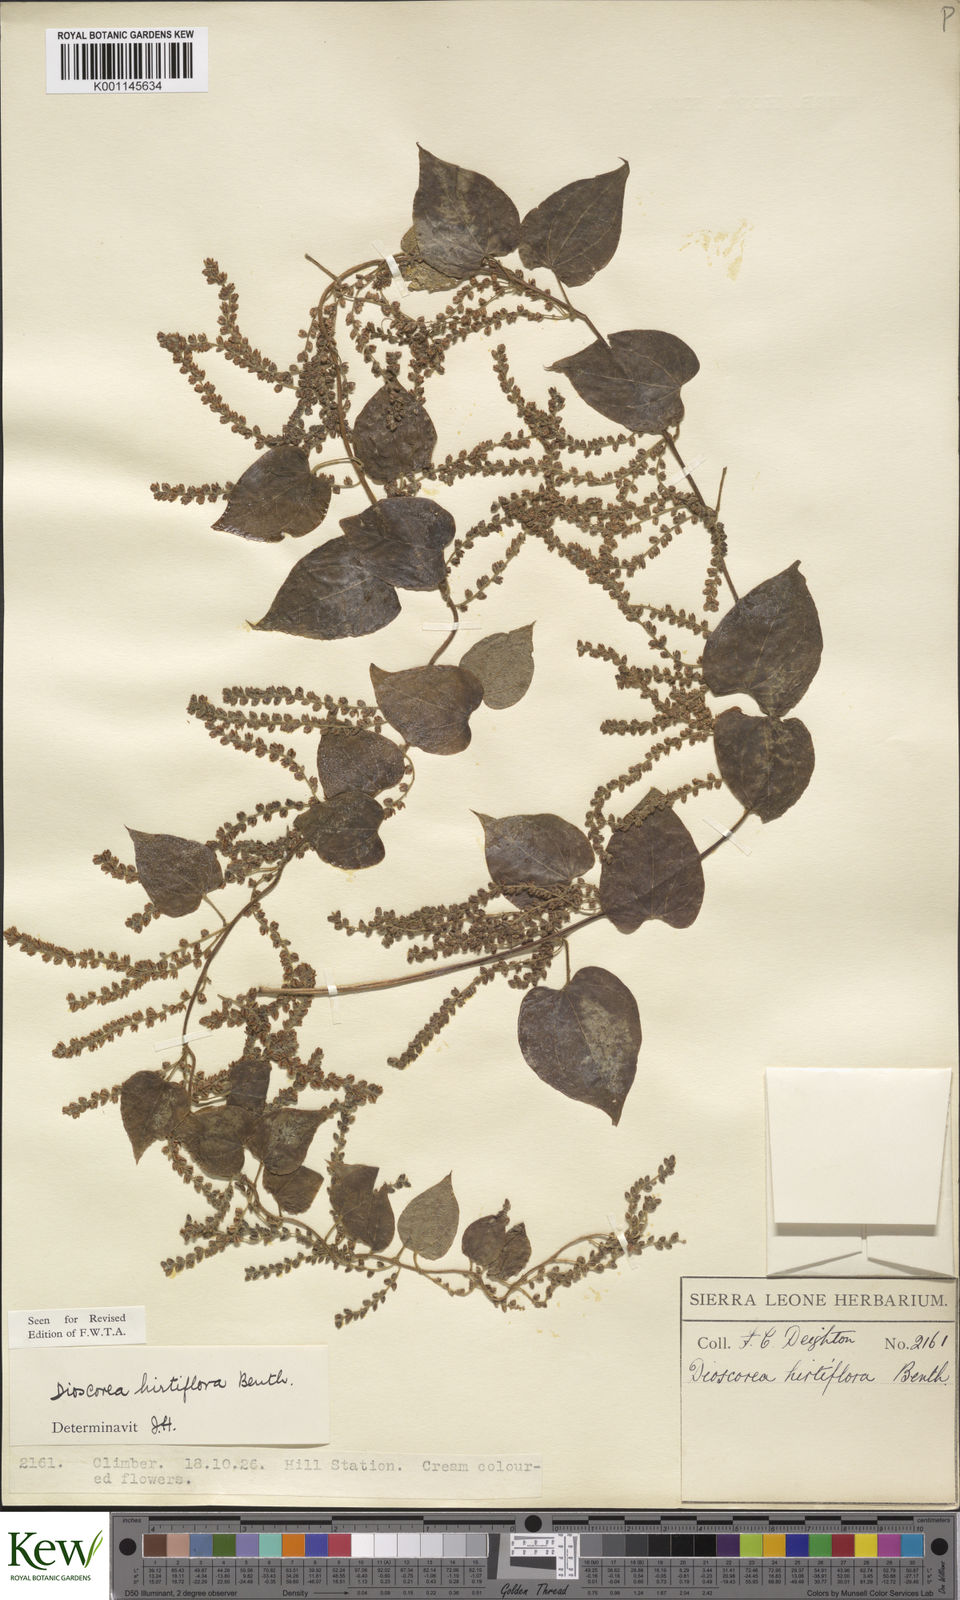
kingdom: Plantae
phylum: Tracheophyta
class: Liliopsida
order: Dioscoreales
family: Dioscoreaceae
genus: Dioscorea
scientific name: Dioscorea hirtiflora
